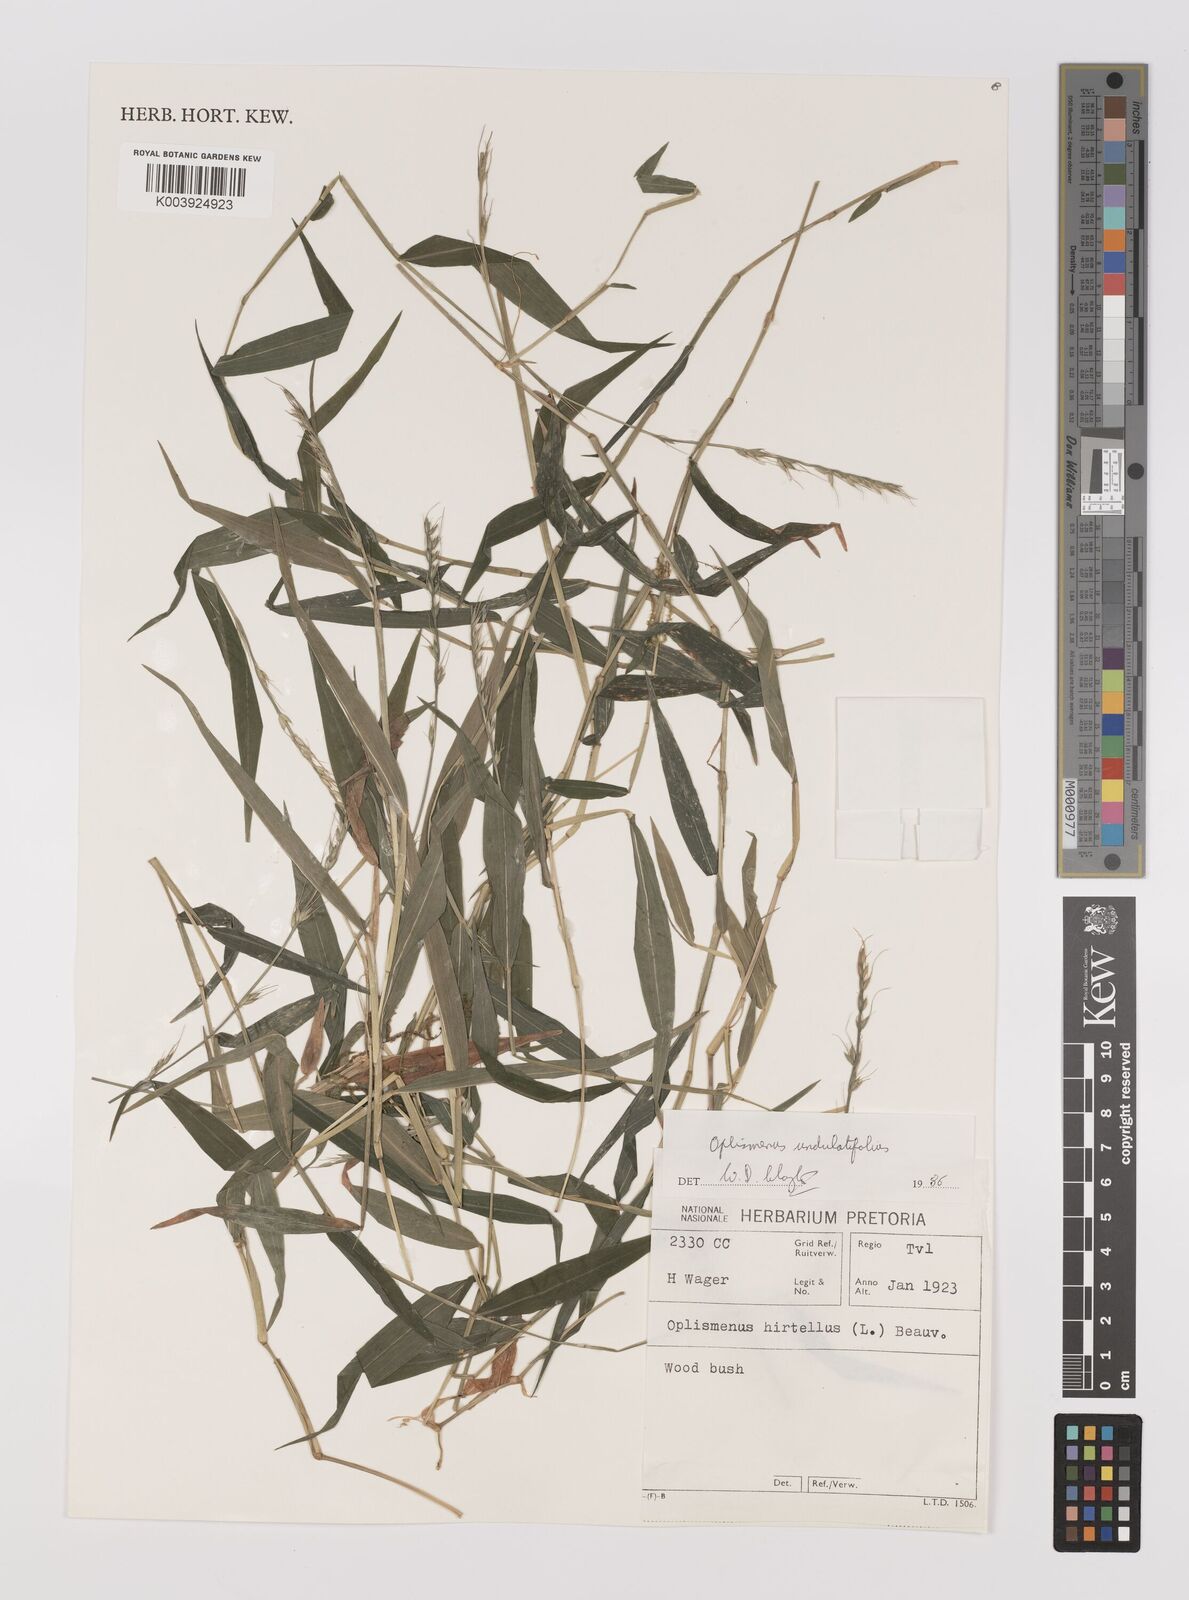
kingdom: Plantae
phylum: Tracheophyta
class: Liliopsida
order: Poales
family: Poaceae
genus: Oplismenus
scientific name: Oplismenus undulatifolius
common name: Wavyleaf basketgrass
